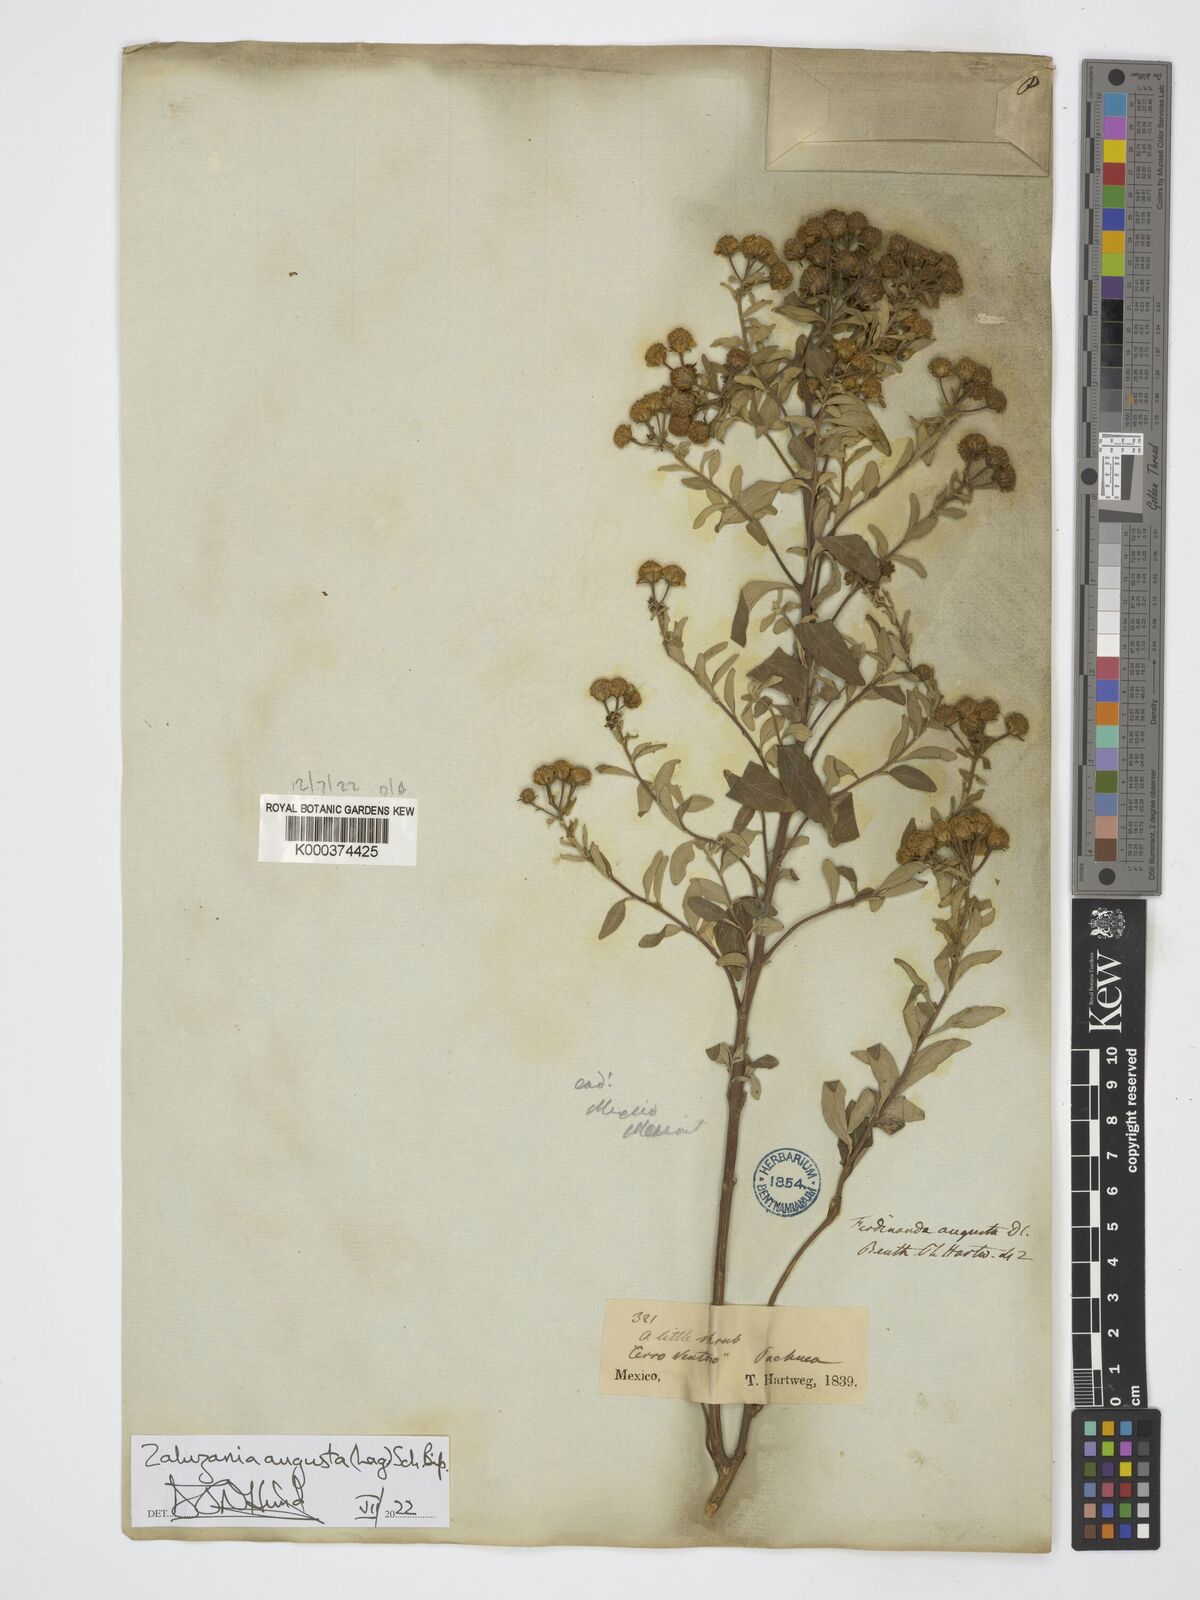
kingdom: Plantae
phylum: Tracheophyta
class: Magnoliopsida
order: Asterales
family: Asteraceae
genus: Zaluzania
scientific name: Zaluzania augusta
